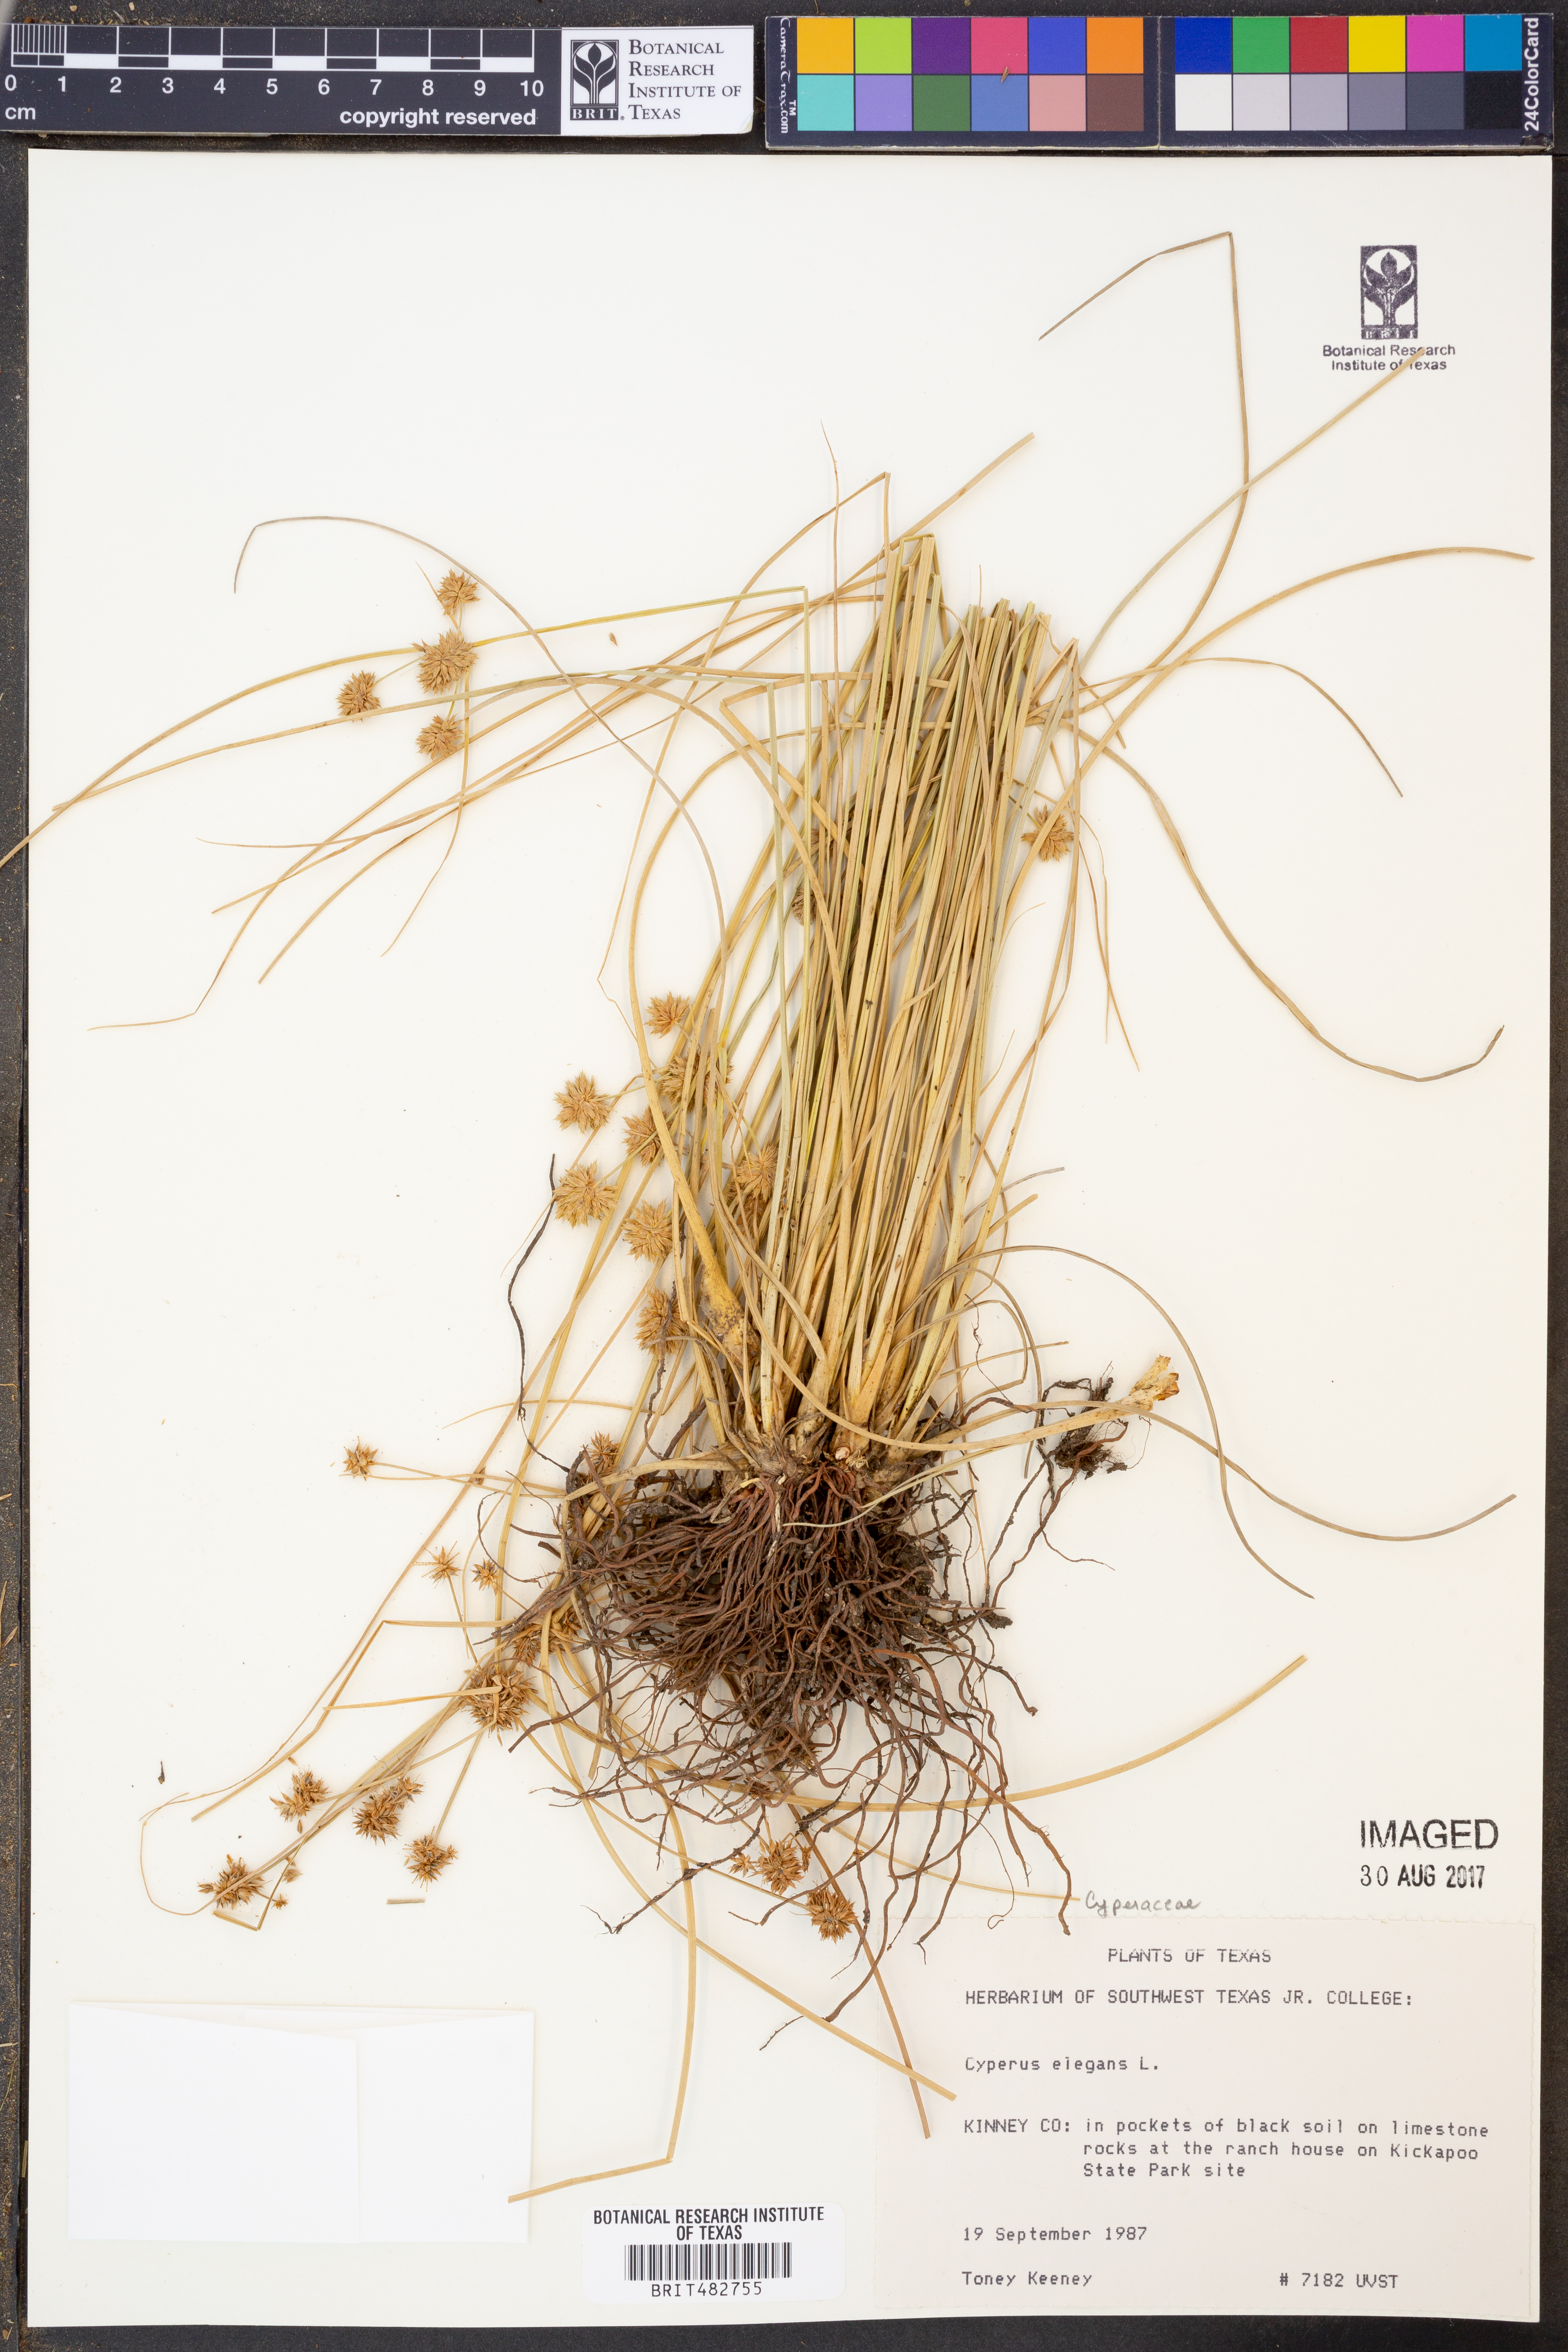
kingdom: Plantae
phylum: Tracheophyta
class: Liliopsida
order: Poales
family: Cyperaceae
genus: Cyperus
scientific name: Cyperus elegans
